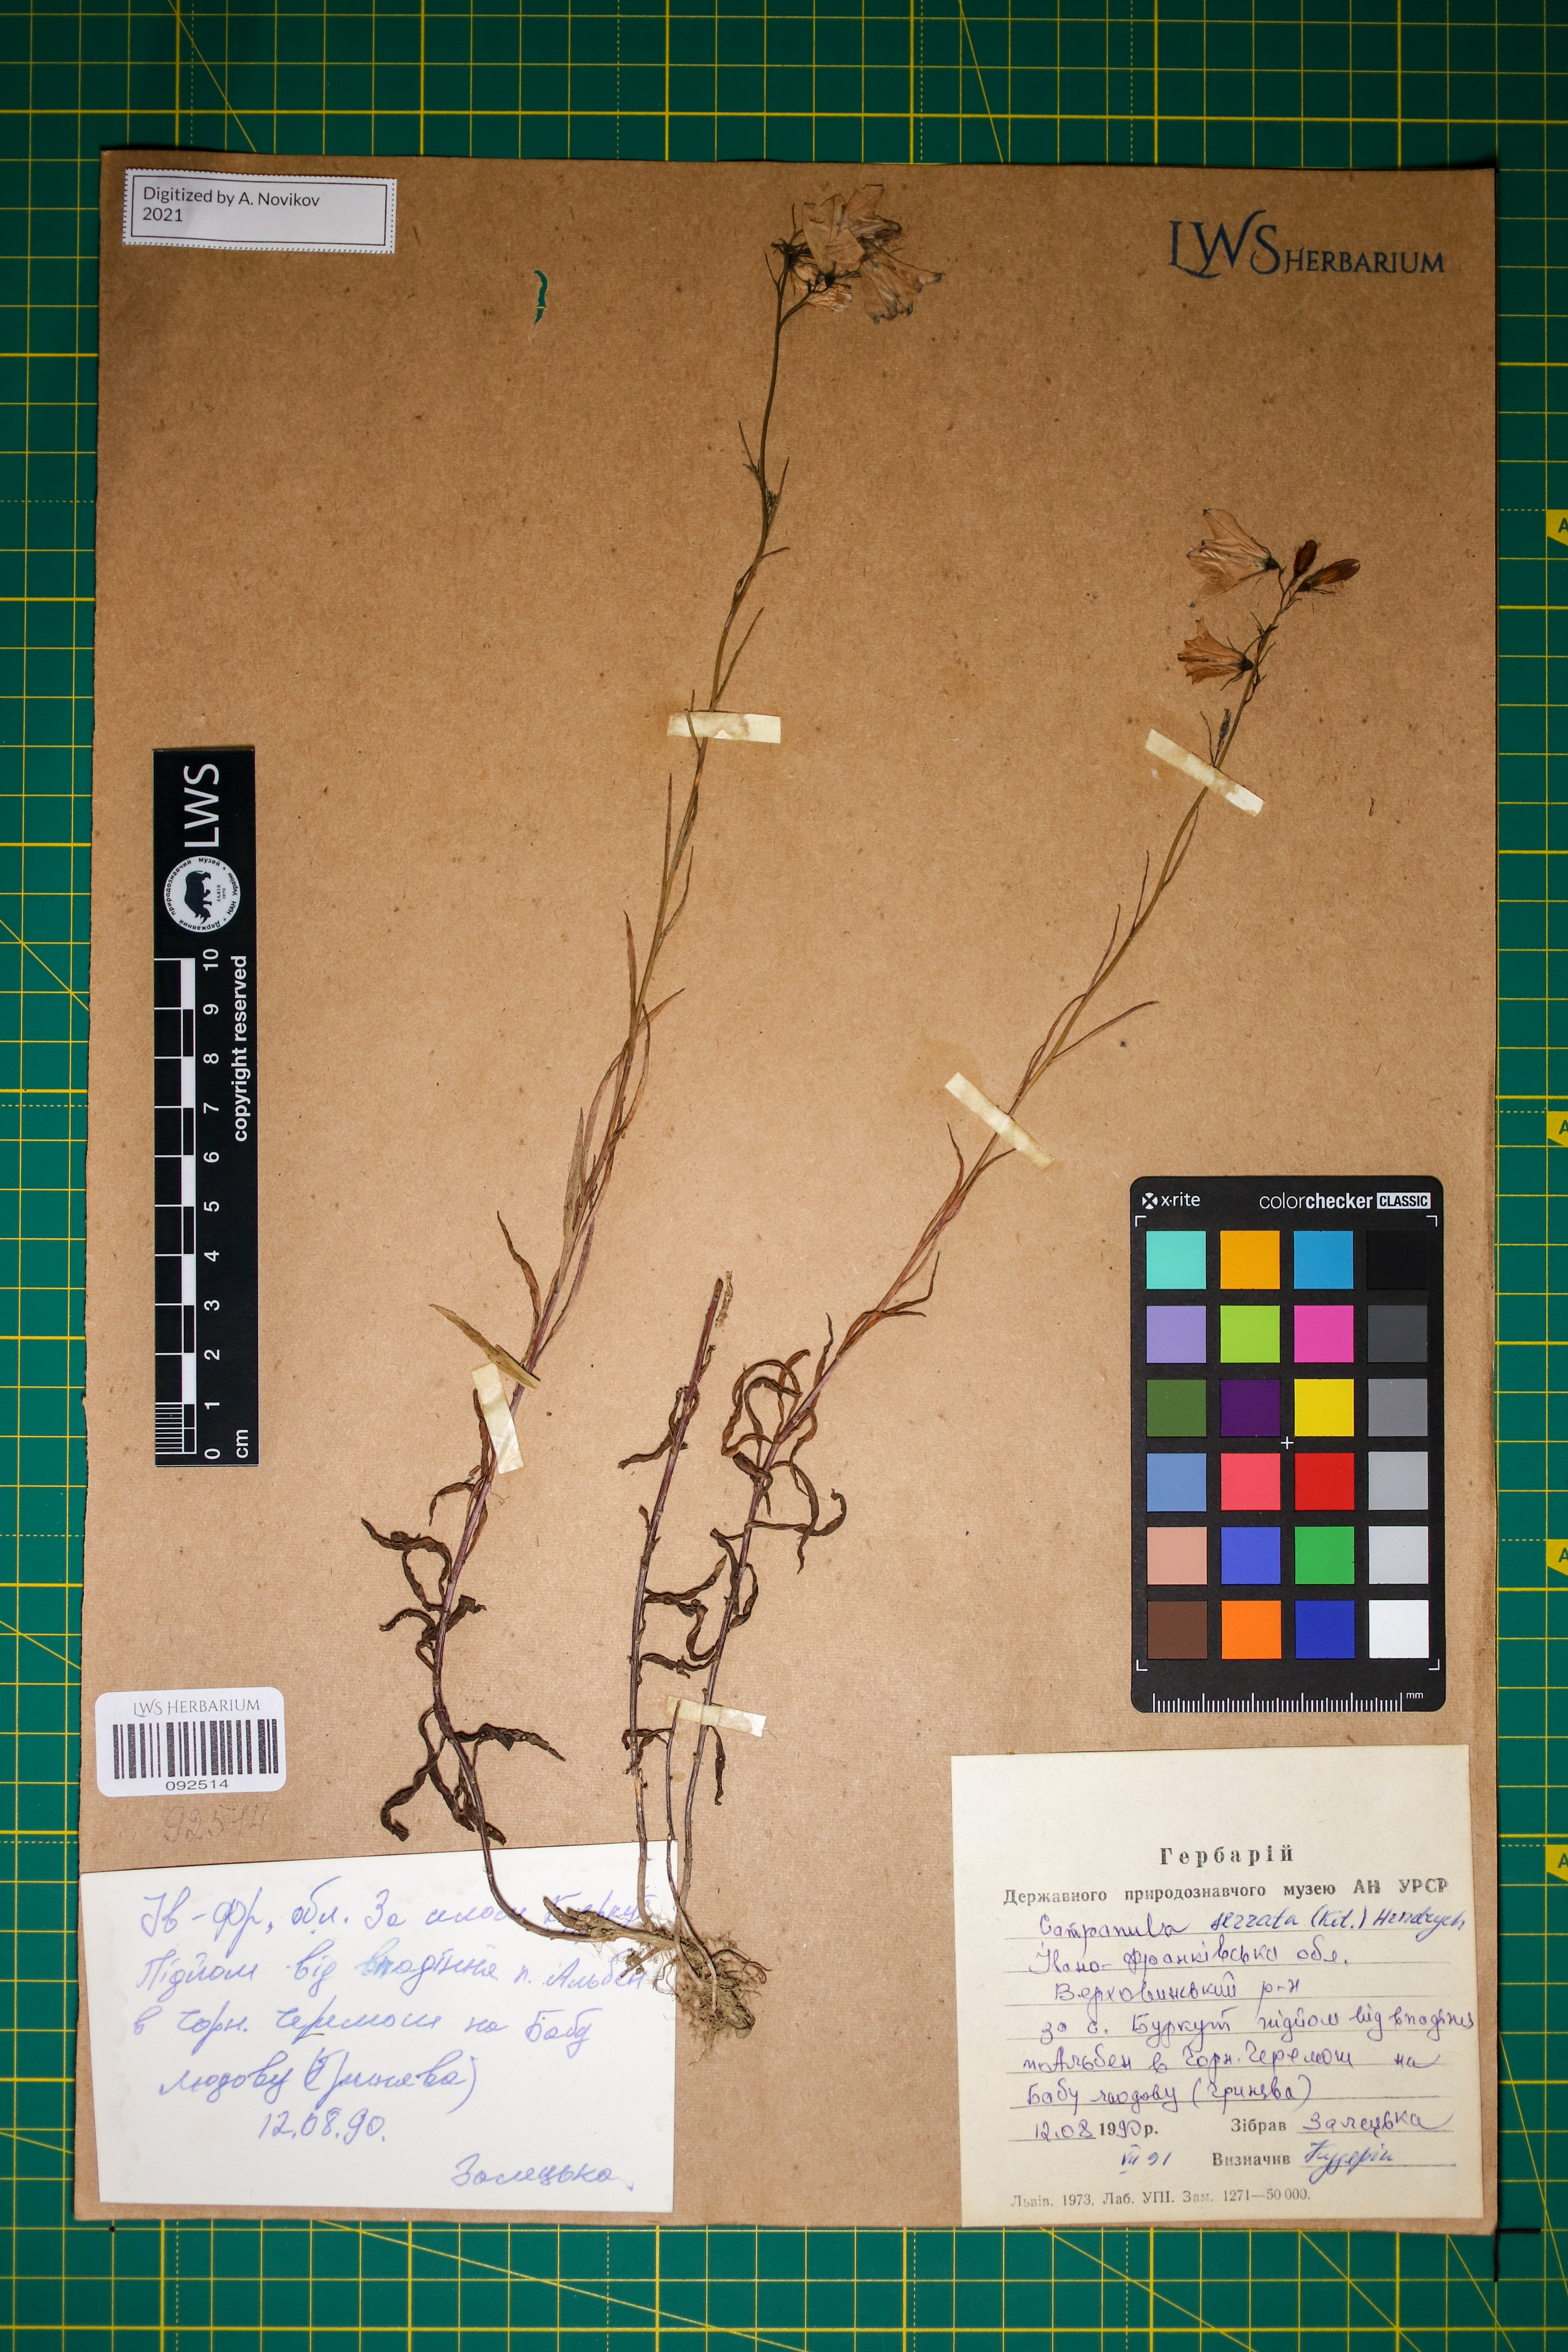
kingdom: Plantae
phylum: Tracheophyta
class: Magnoliopsida
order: Asterales
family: Campanulaceae
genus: Campanula
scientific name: Campanula serrata
